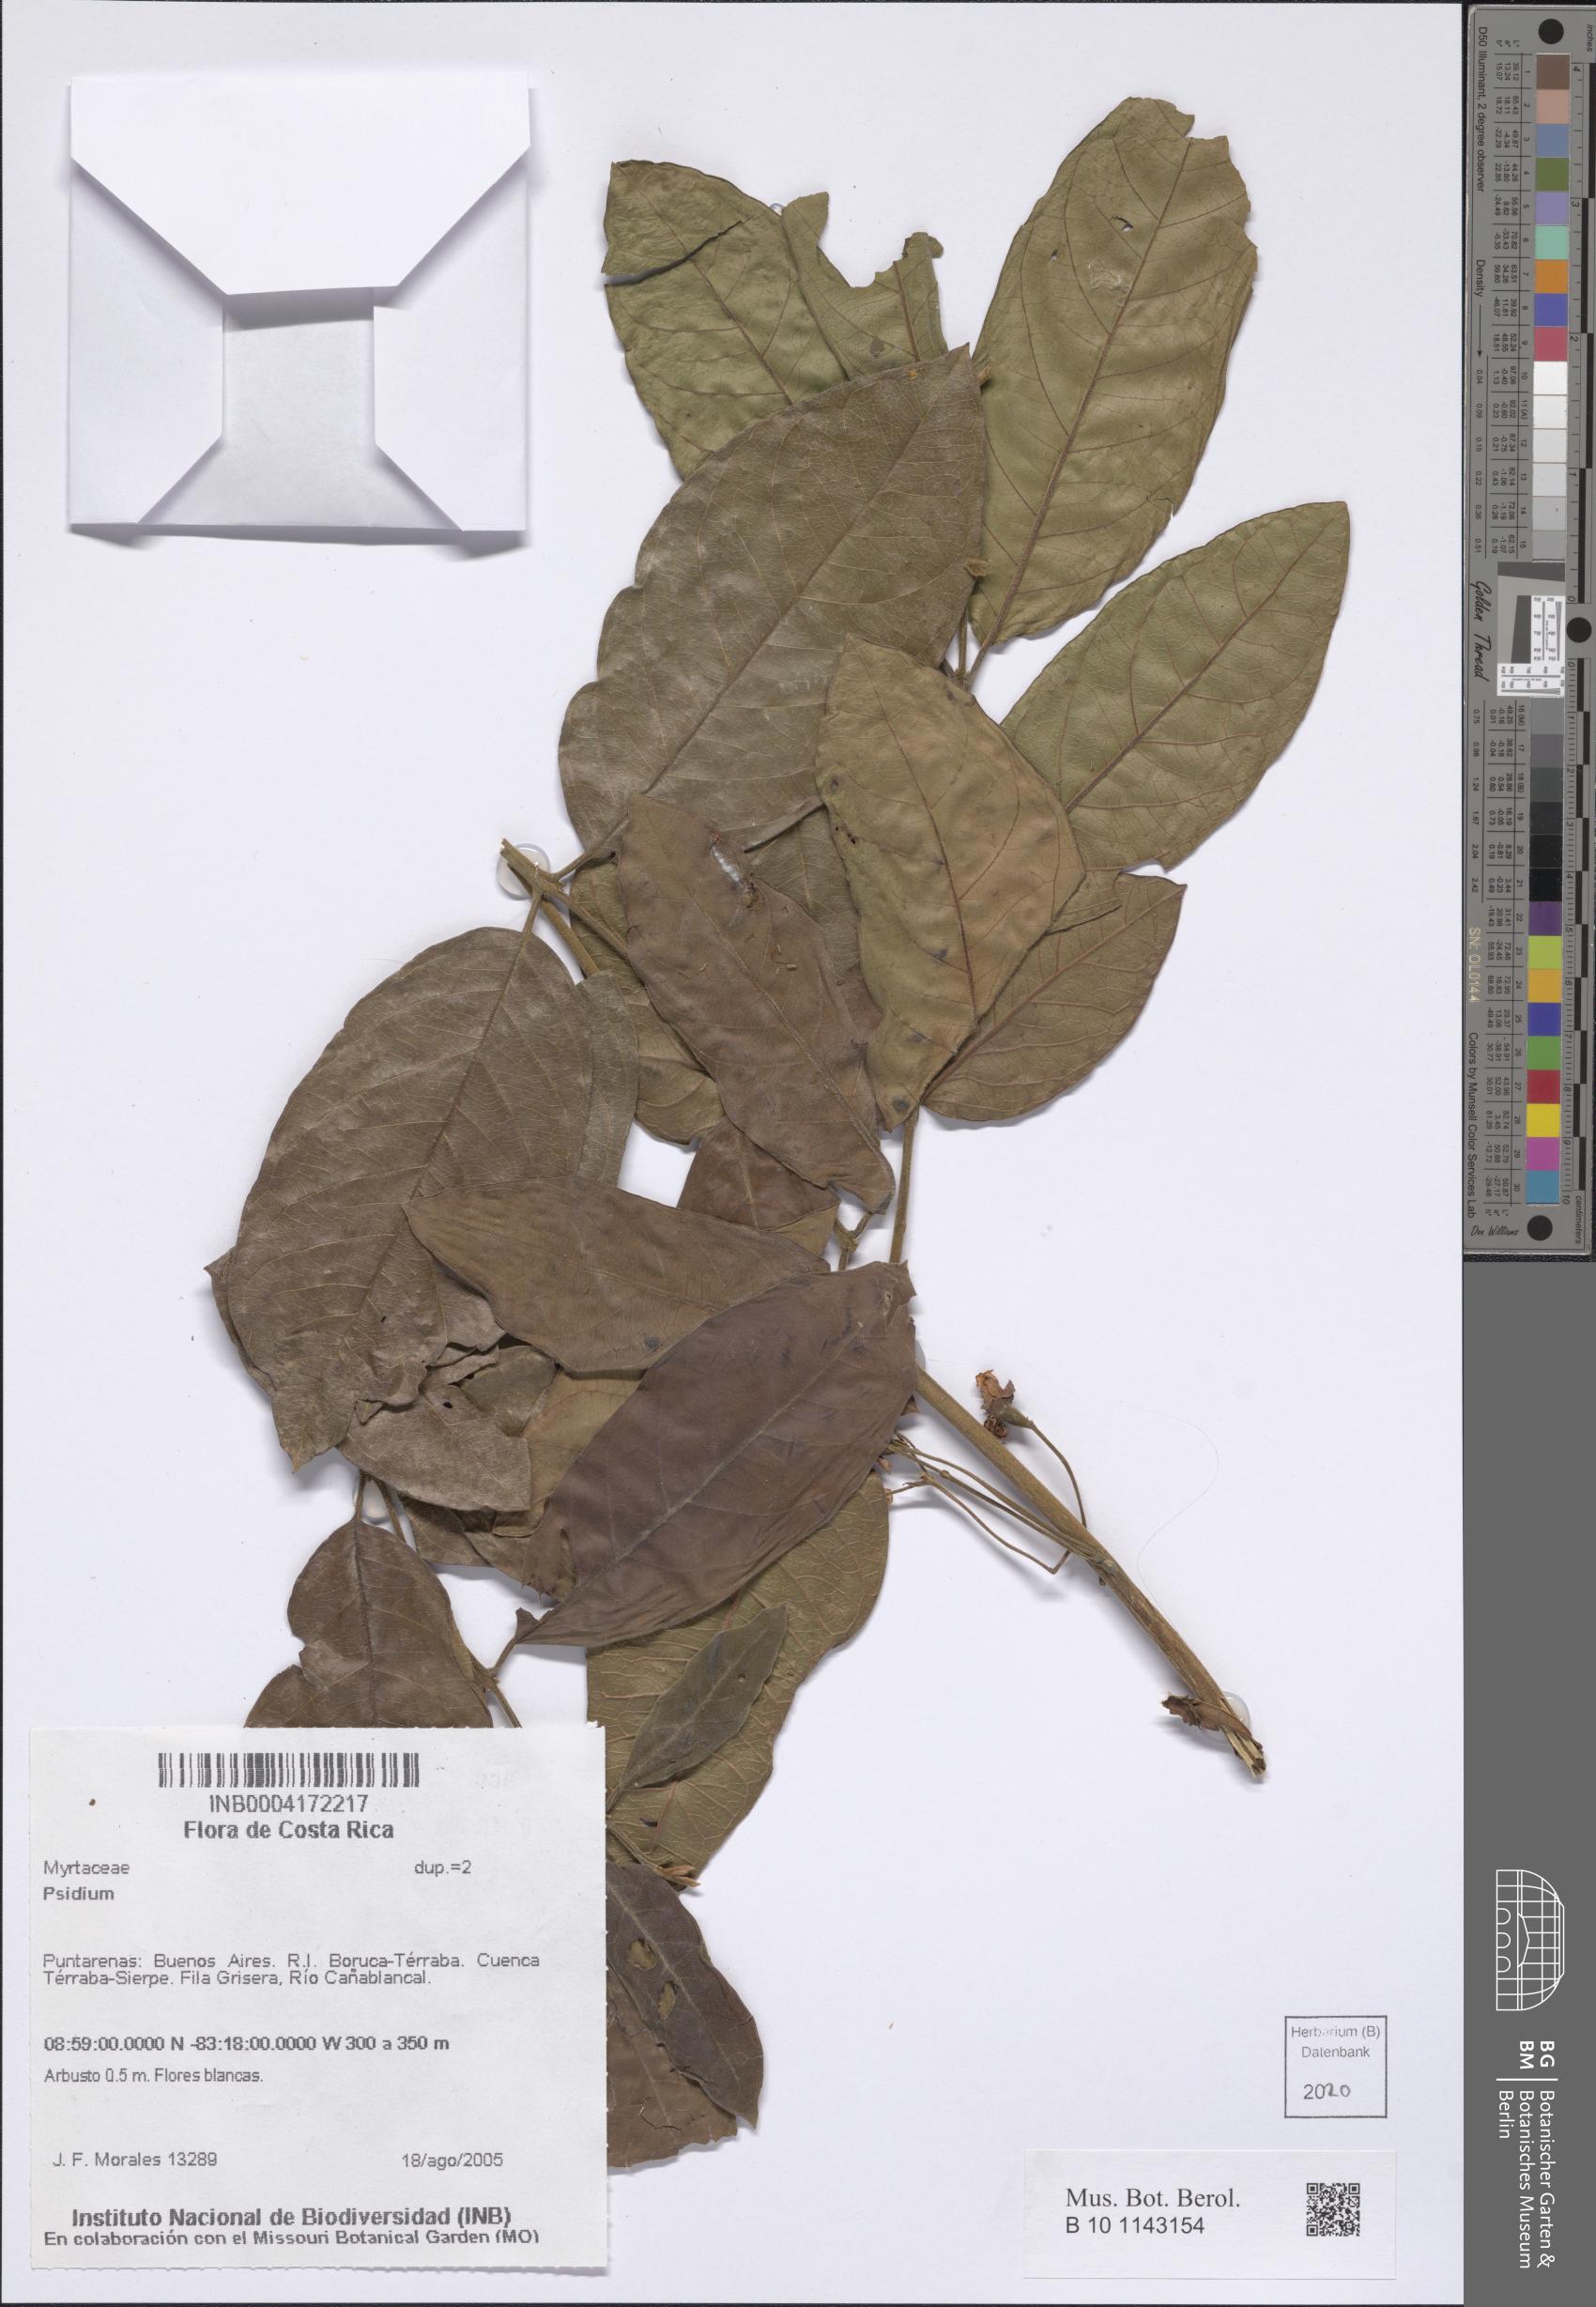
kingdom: Plantae
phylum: Tracheophyta
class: Magnoliopsida
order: Myrtales
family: Myrtaceae
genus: Psidium
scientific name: Psidium
